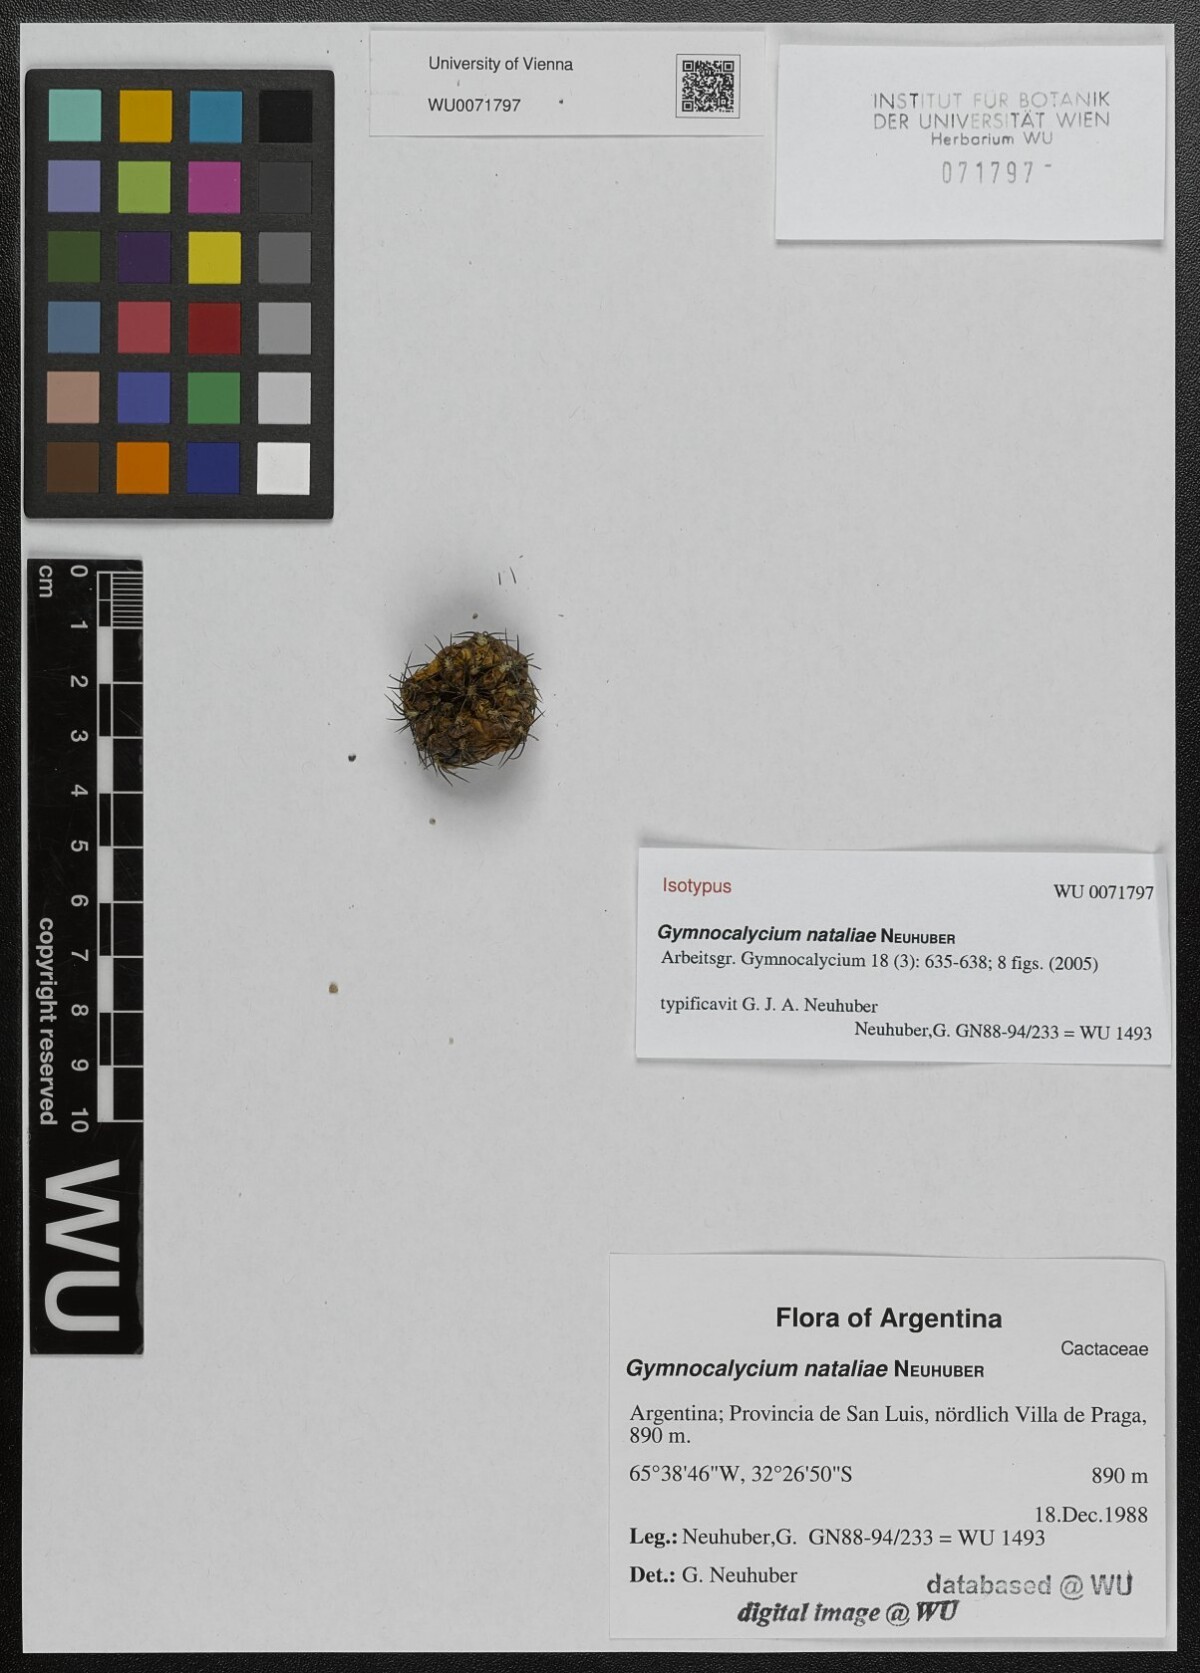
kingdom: Plantae
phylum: Tracheophyta
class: Magnoliopsida
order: Caryophyllales
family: Cactaceae
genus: Gymnocalycium
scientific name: Gymnocalycium berchtii
